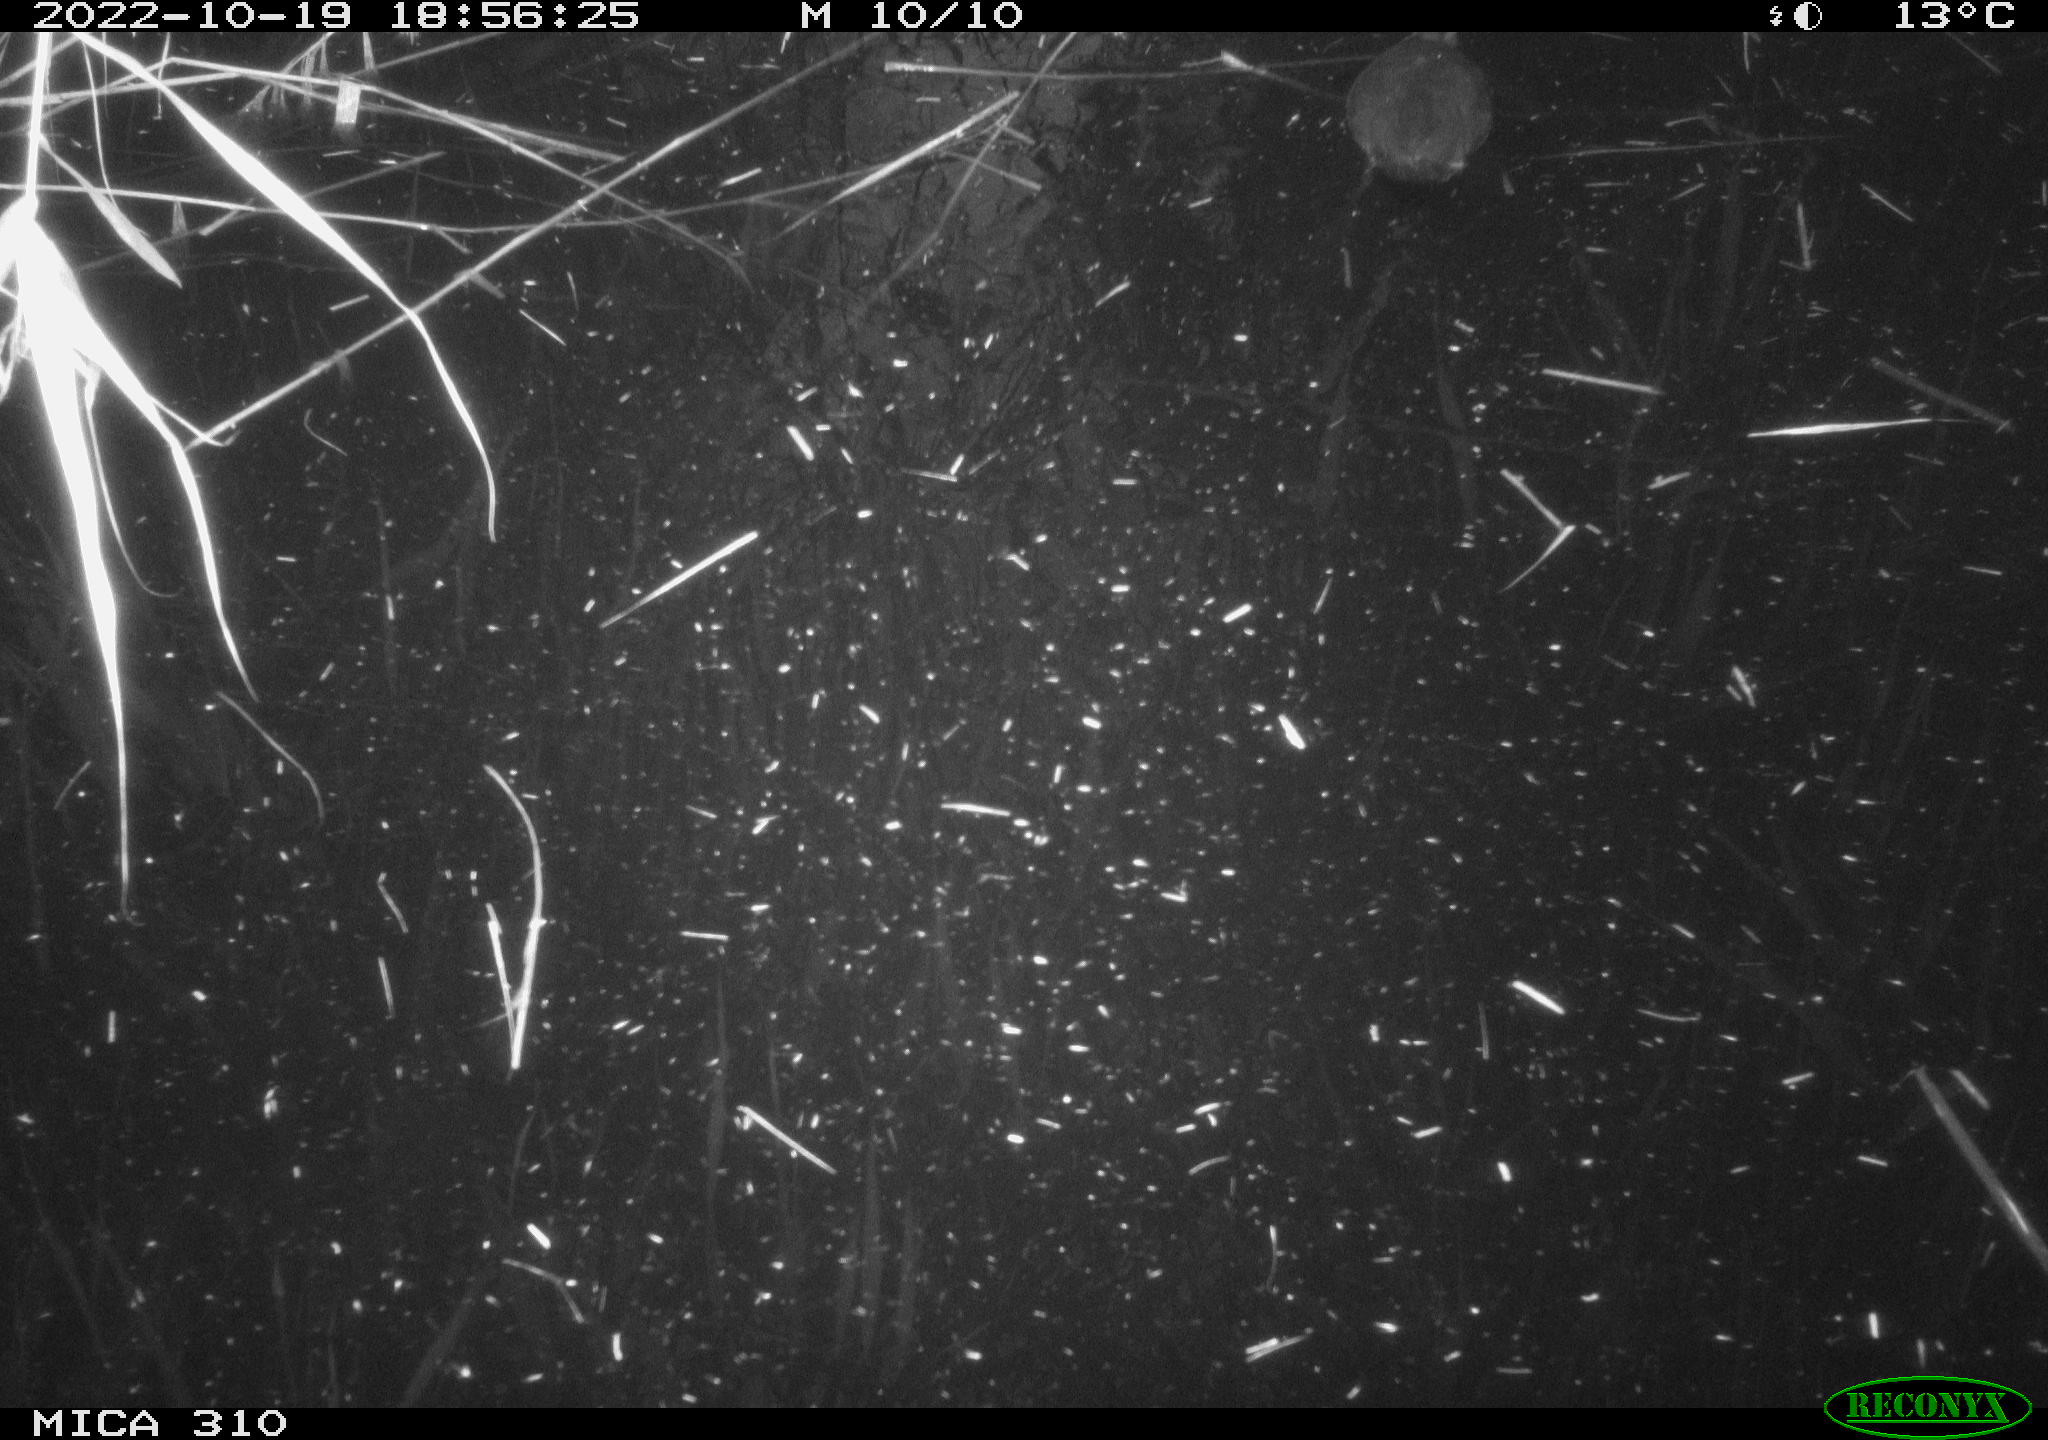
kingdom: Animalia
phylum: Chordata
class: Aves
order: Gruiformes
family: Rallidae
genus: Fulica
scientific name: Fulica atra
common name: Eurasian coot
